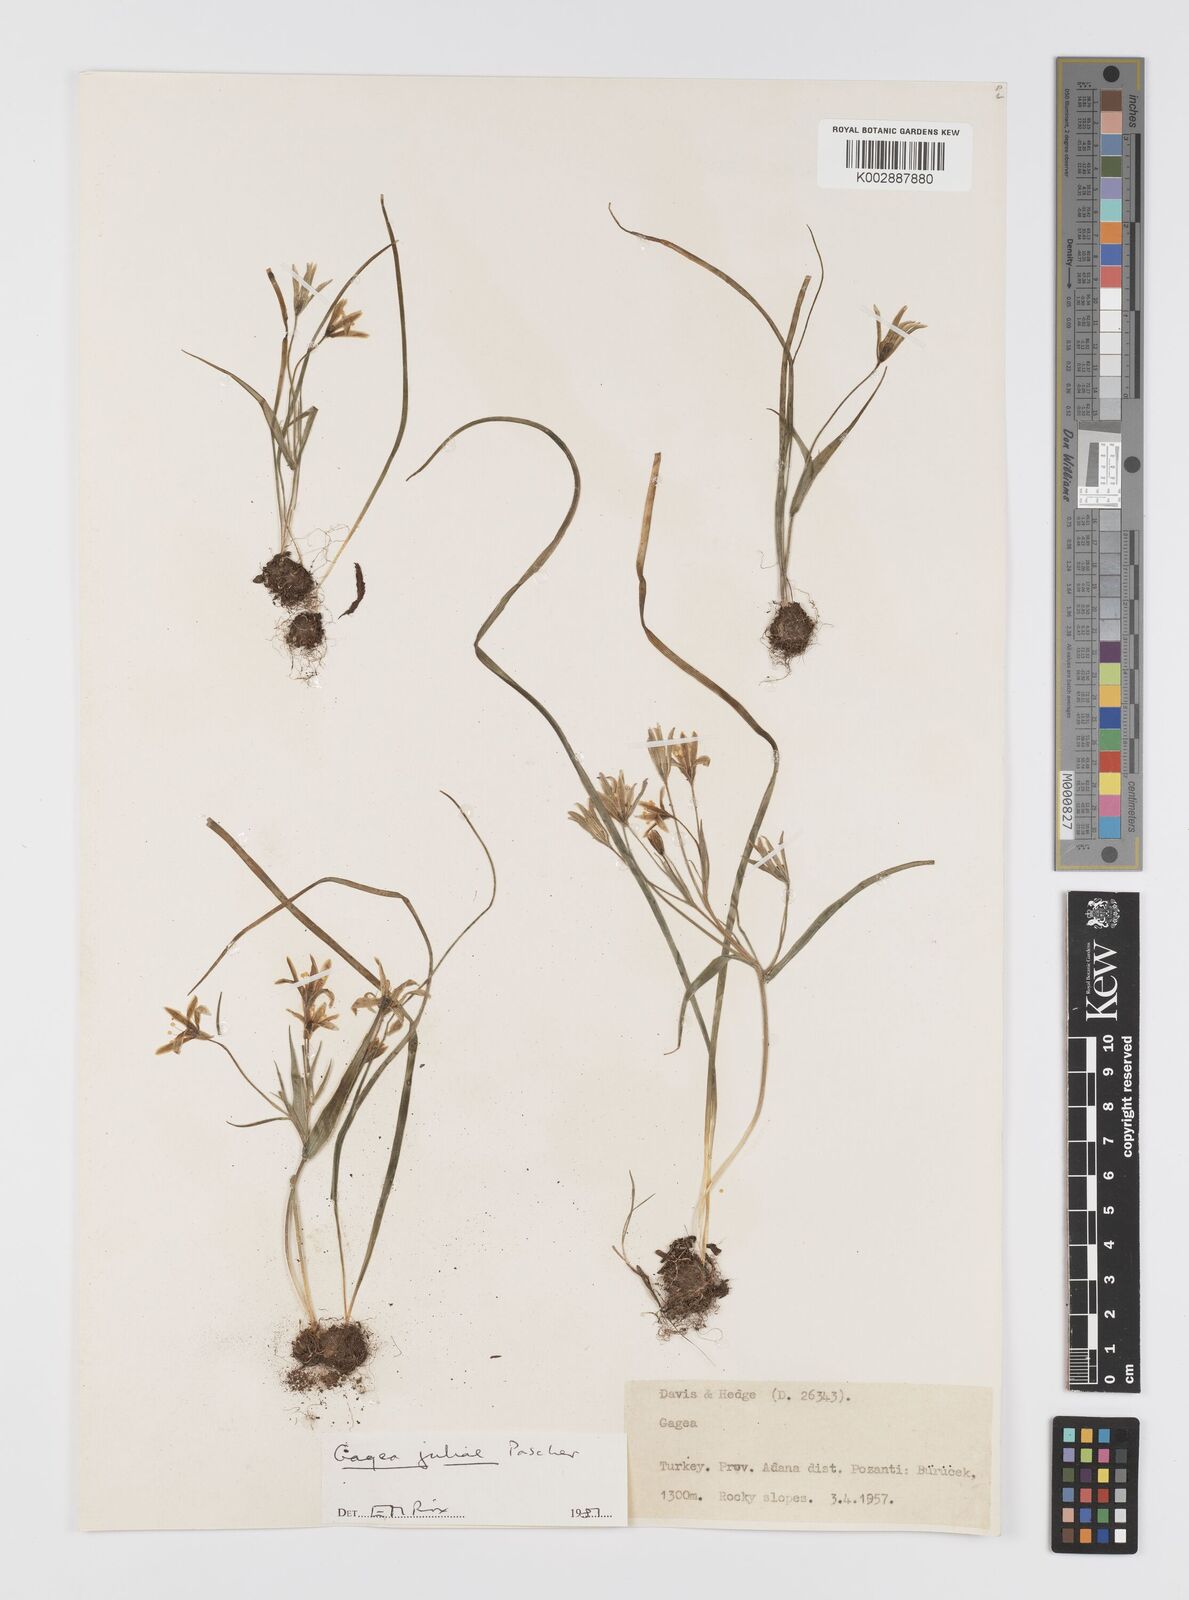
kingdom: Plantae
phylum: Tracheophyta
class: Liliopsida
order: Liliales
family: Liliaceae
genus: Gagea
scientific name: Gagea juliae
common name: Julia’s gagea
